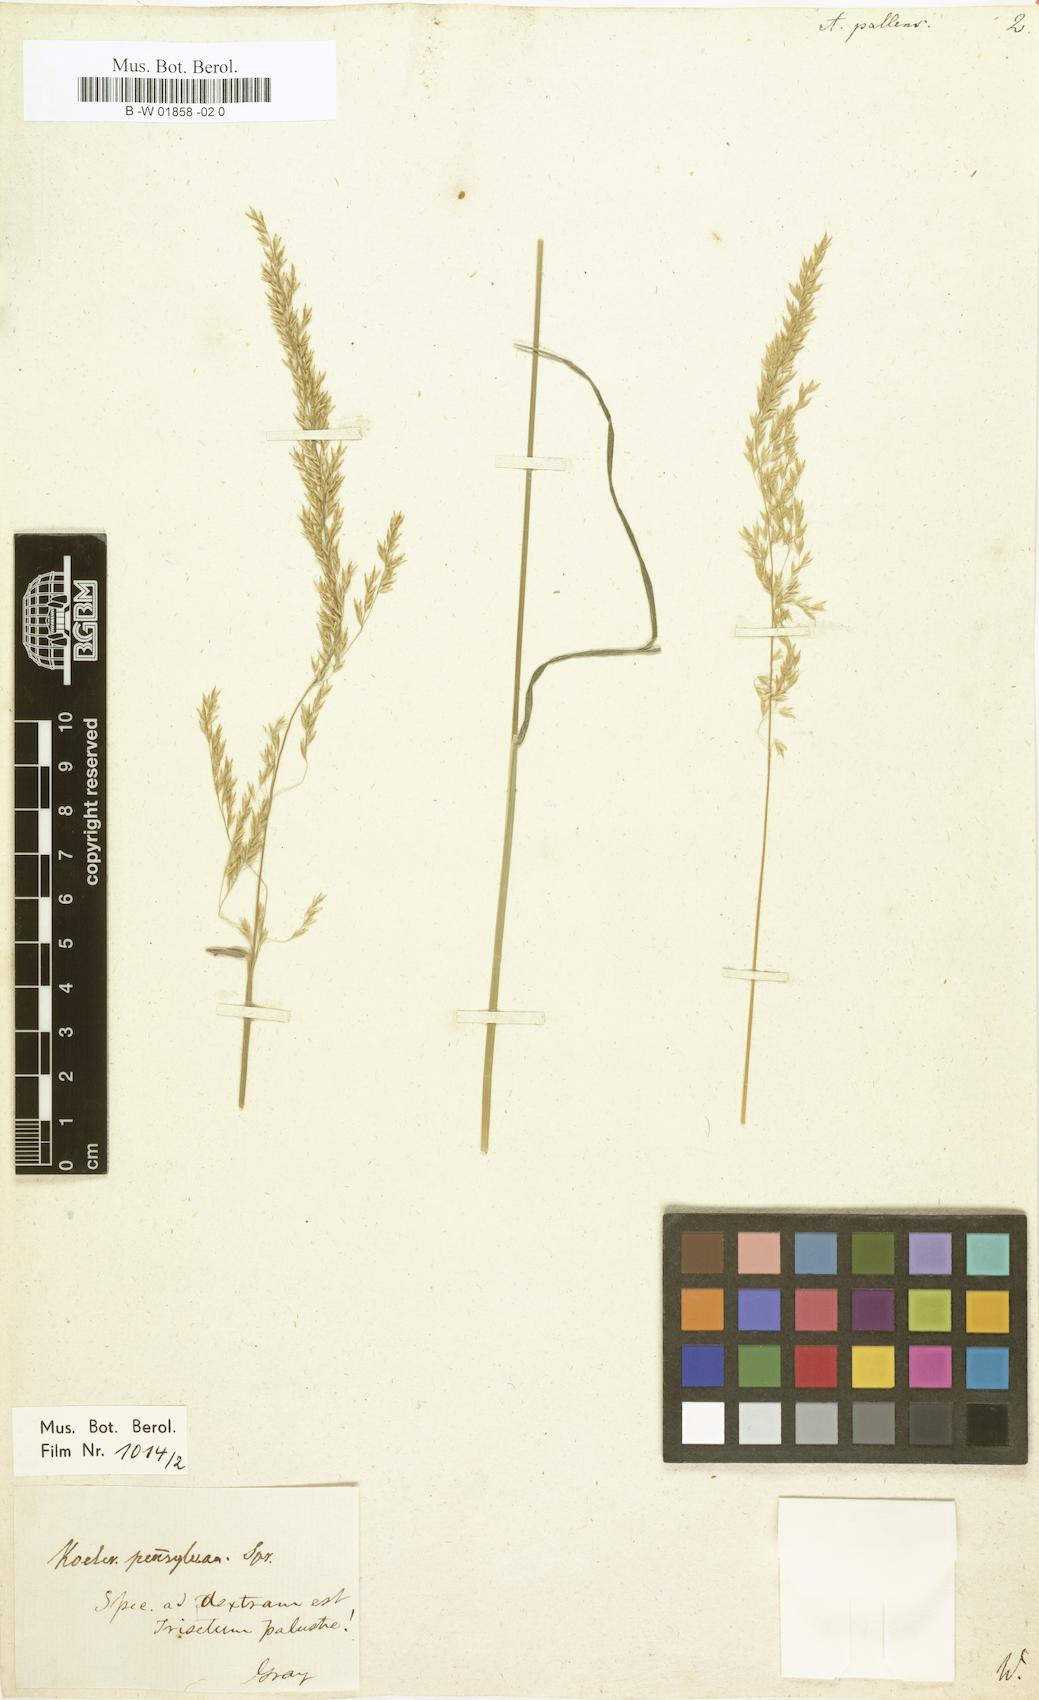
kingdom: Plantae
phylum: Tracheophyta
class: Liliopsida
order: Poales
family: Poaceae
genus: Sphenopholis
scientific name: Sphenopholis pallens
